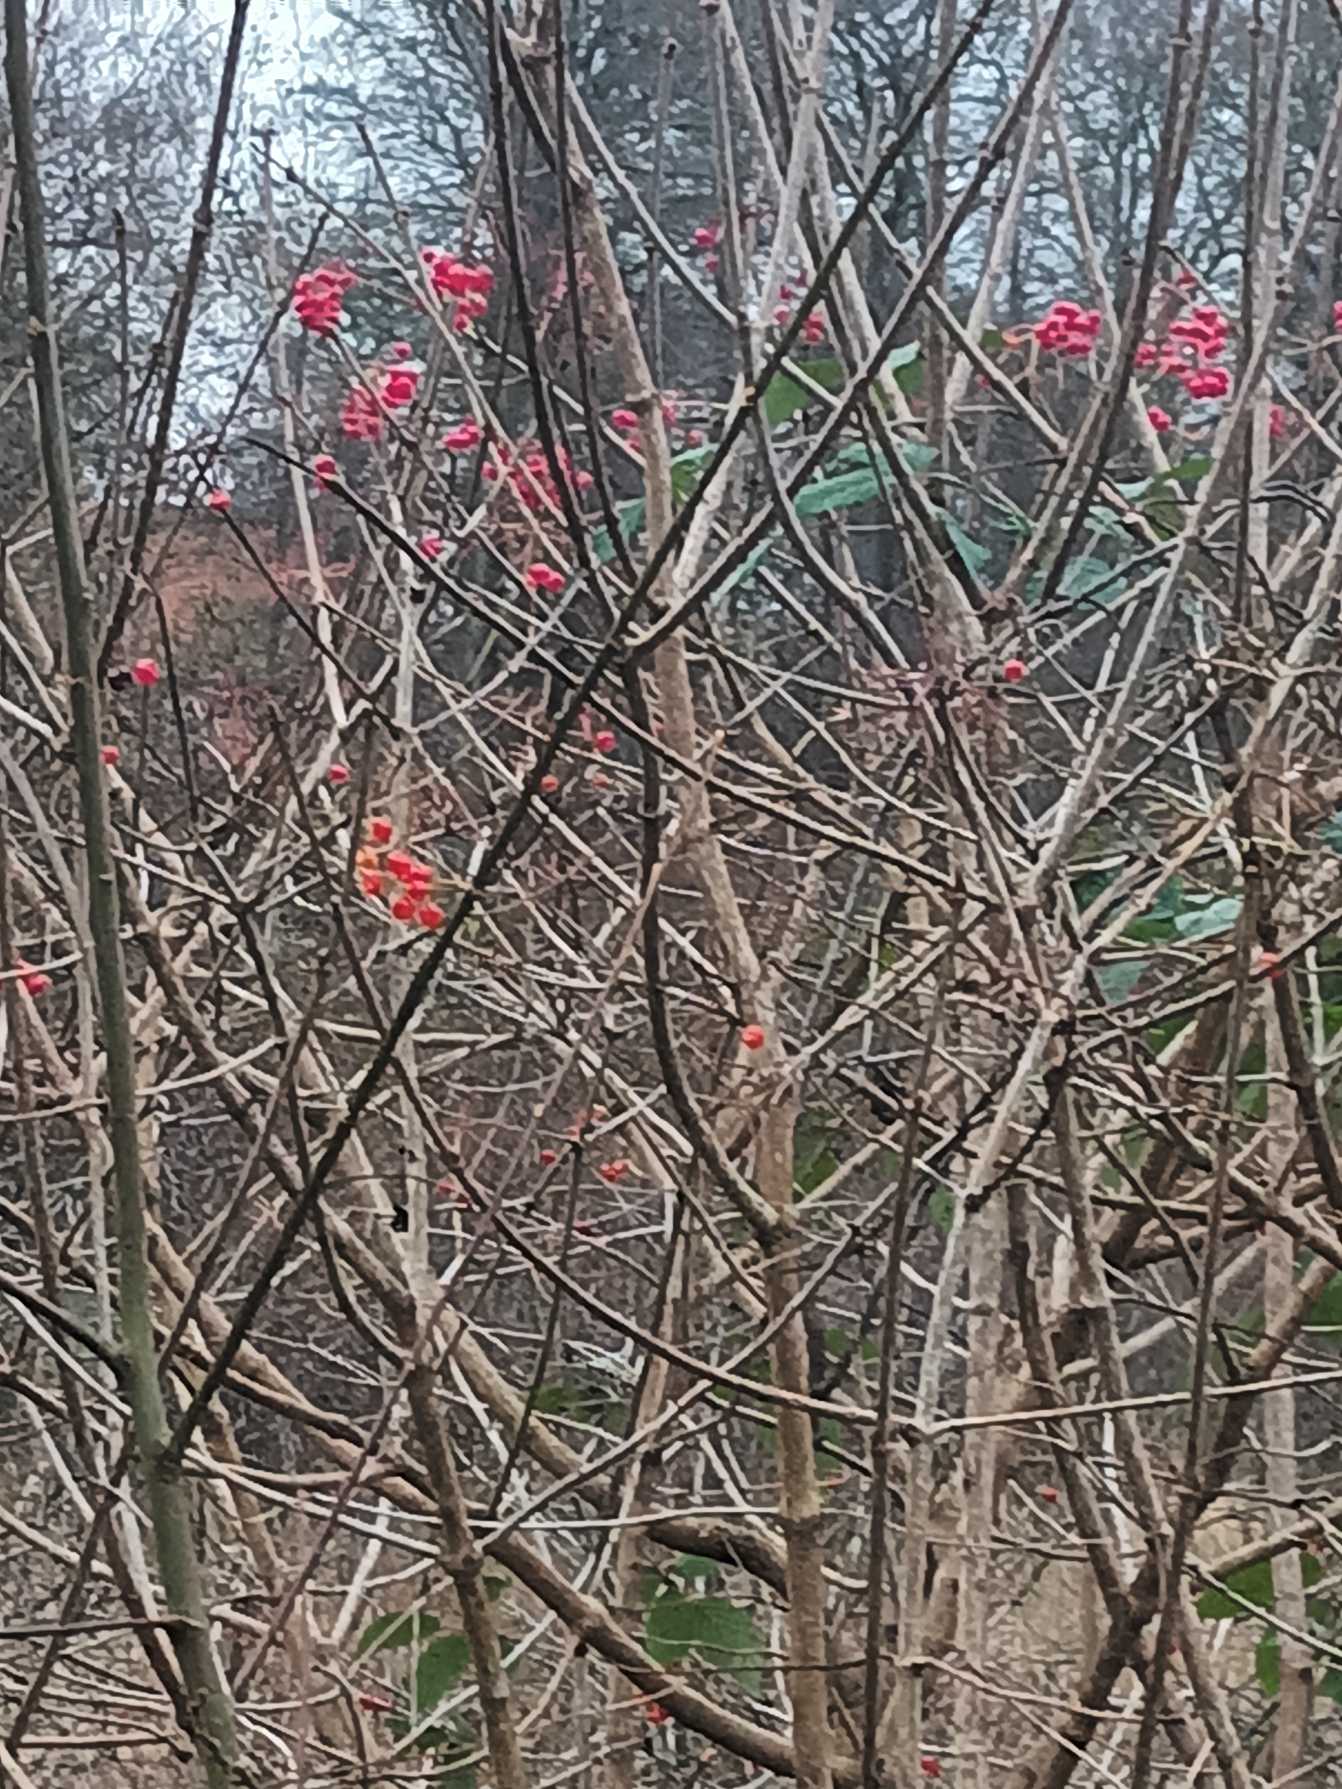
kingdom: Plantae
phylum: Tracheophyta
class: Magnoliopsida
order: Dipsacales
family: Viburnaceae
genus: Viburnum
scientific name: Viburnum opulus
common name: Kvalkved
